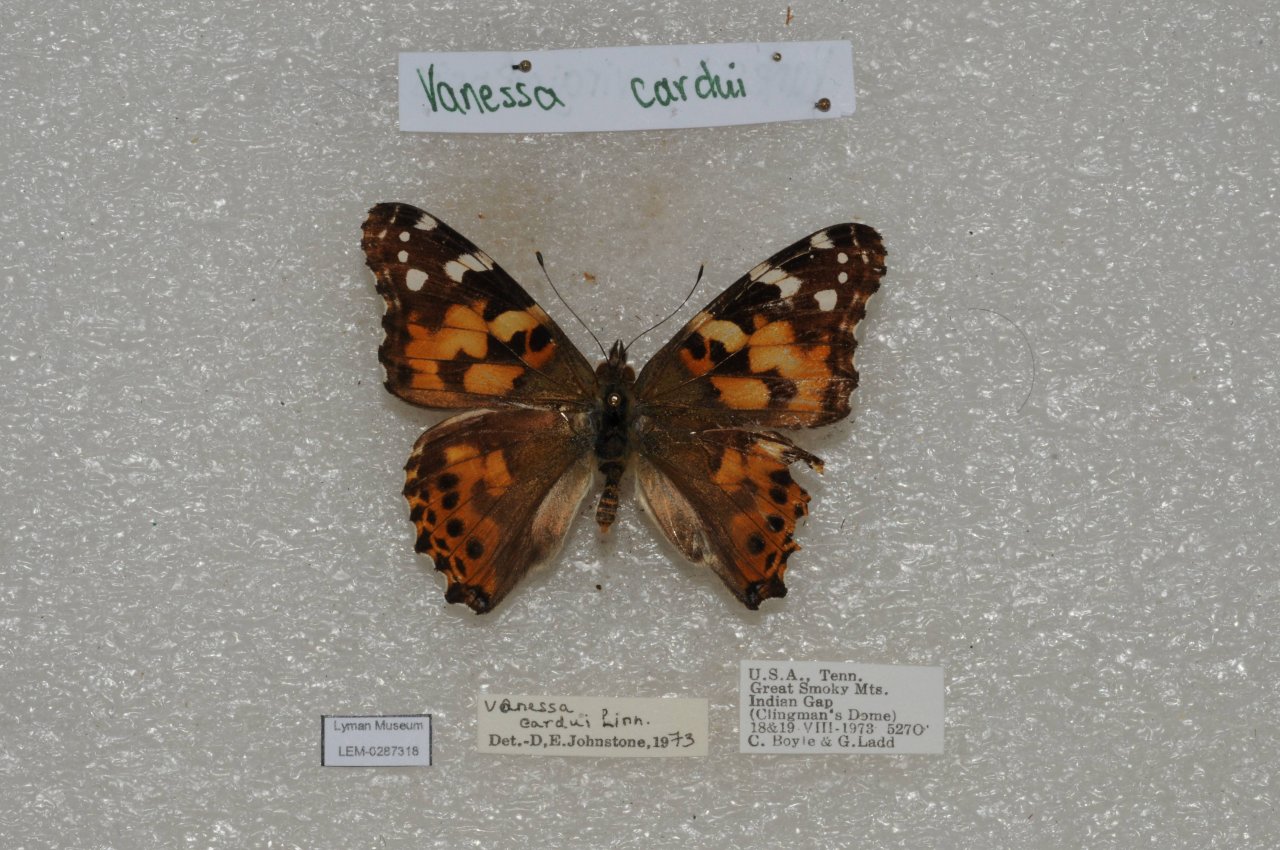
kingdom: Animalia
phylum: Arthropoda
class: Insecta
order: Lepidoptera
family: Nymphalidae
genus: Vanessa
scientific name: Vanessa cardui
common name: Painted Lady
